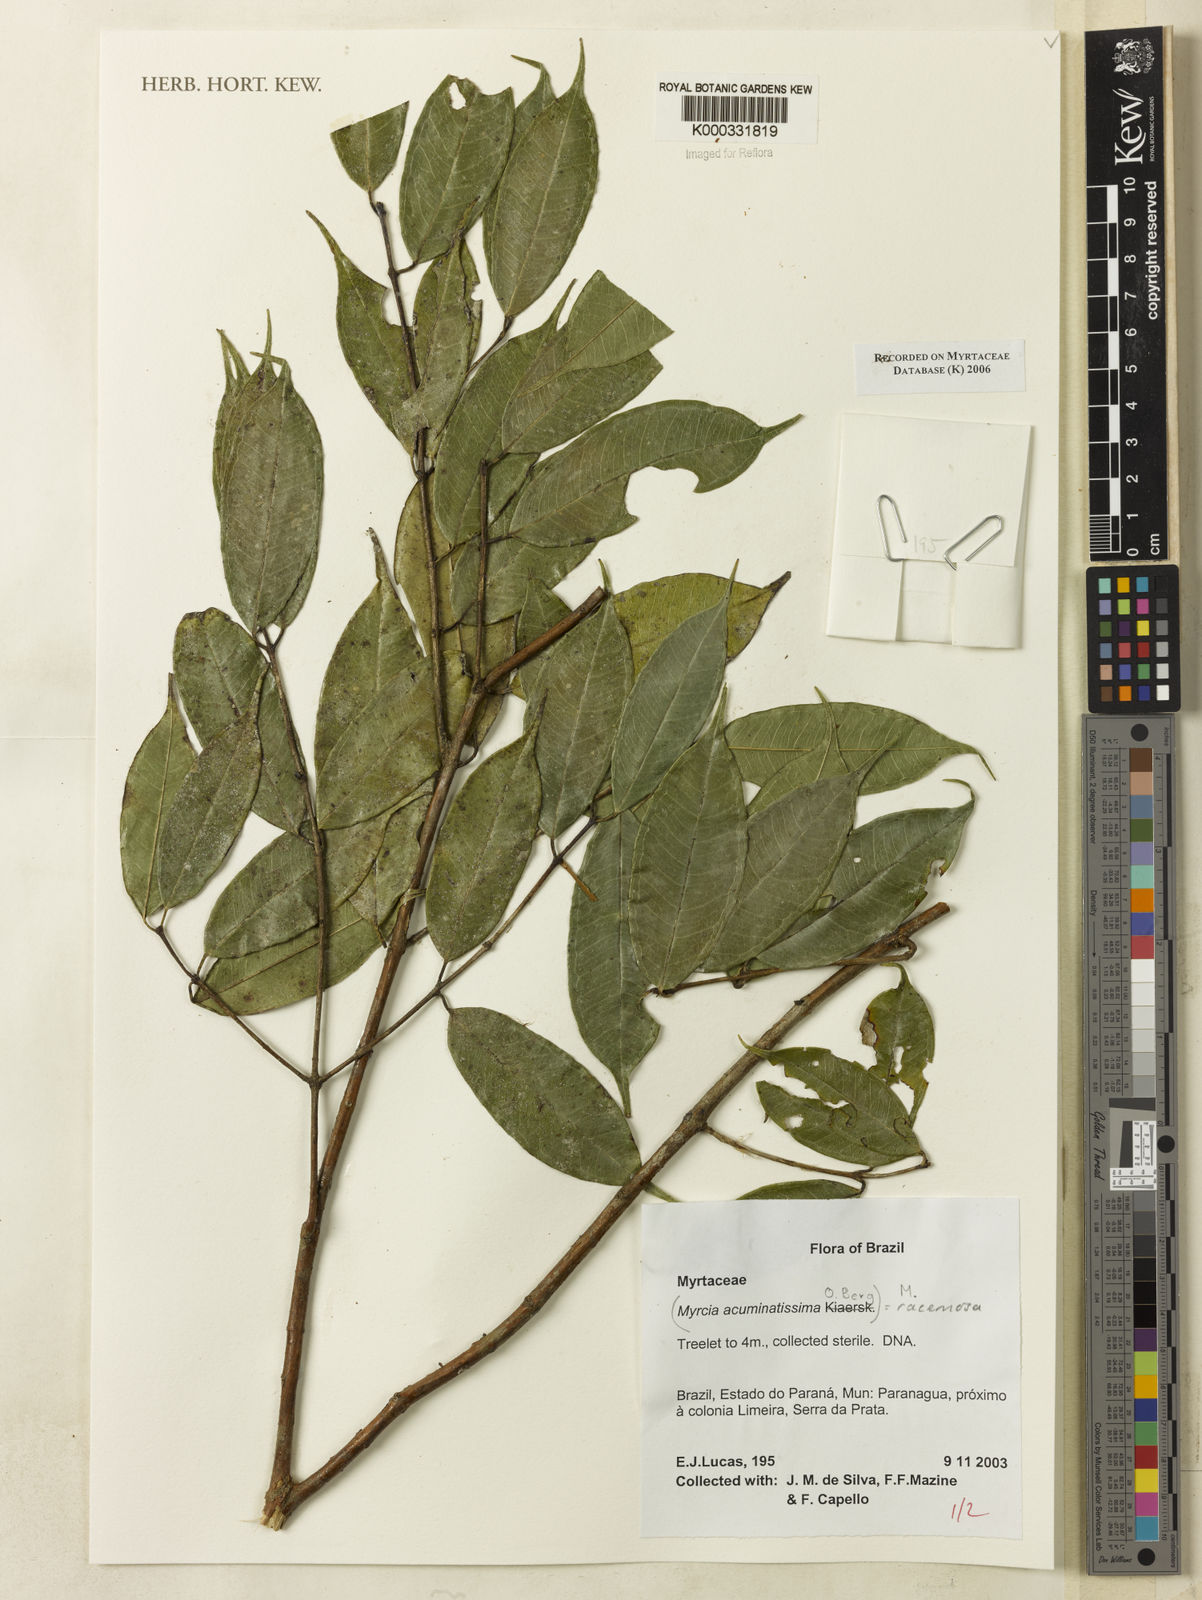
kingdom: Plantae
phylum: Tracheophyta
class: Magnoliopsida
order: Myrtales
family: Myrtaceae
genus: Myrcia
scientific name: Myrcia racemosa
